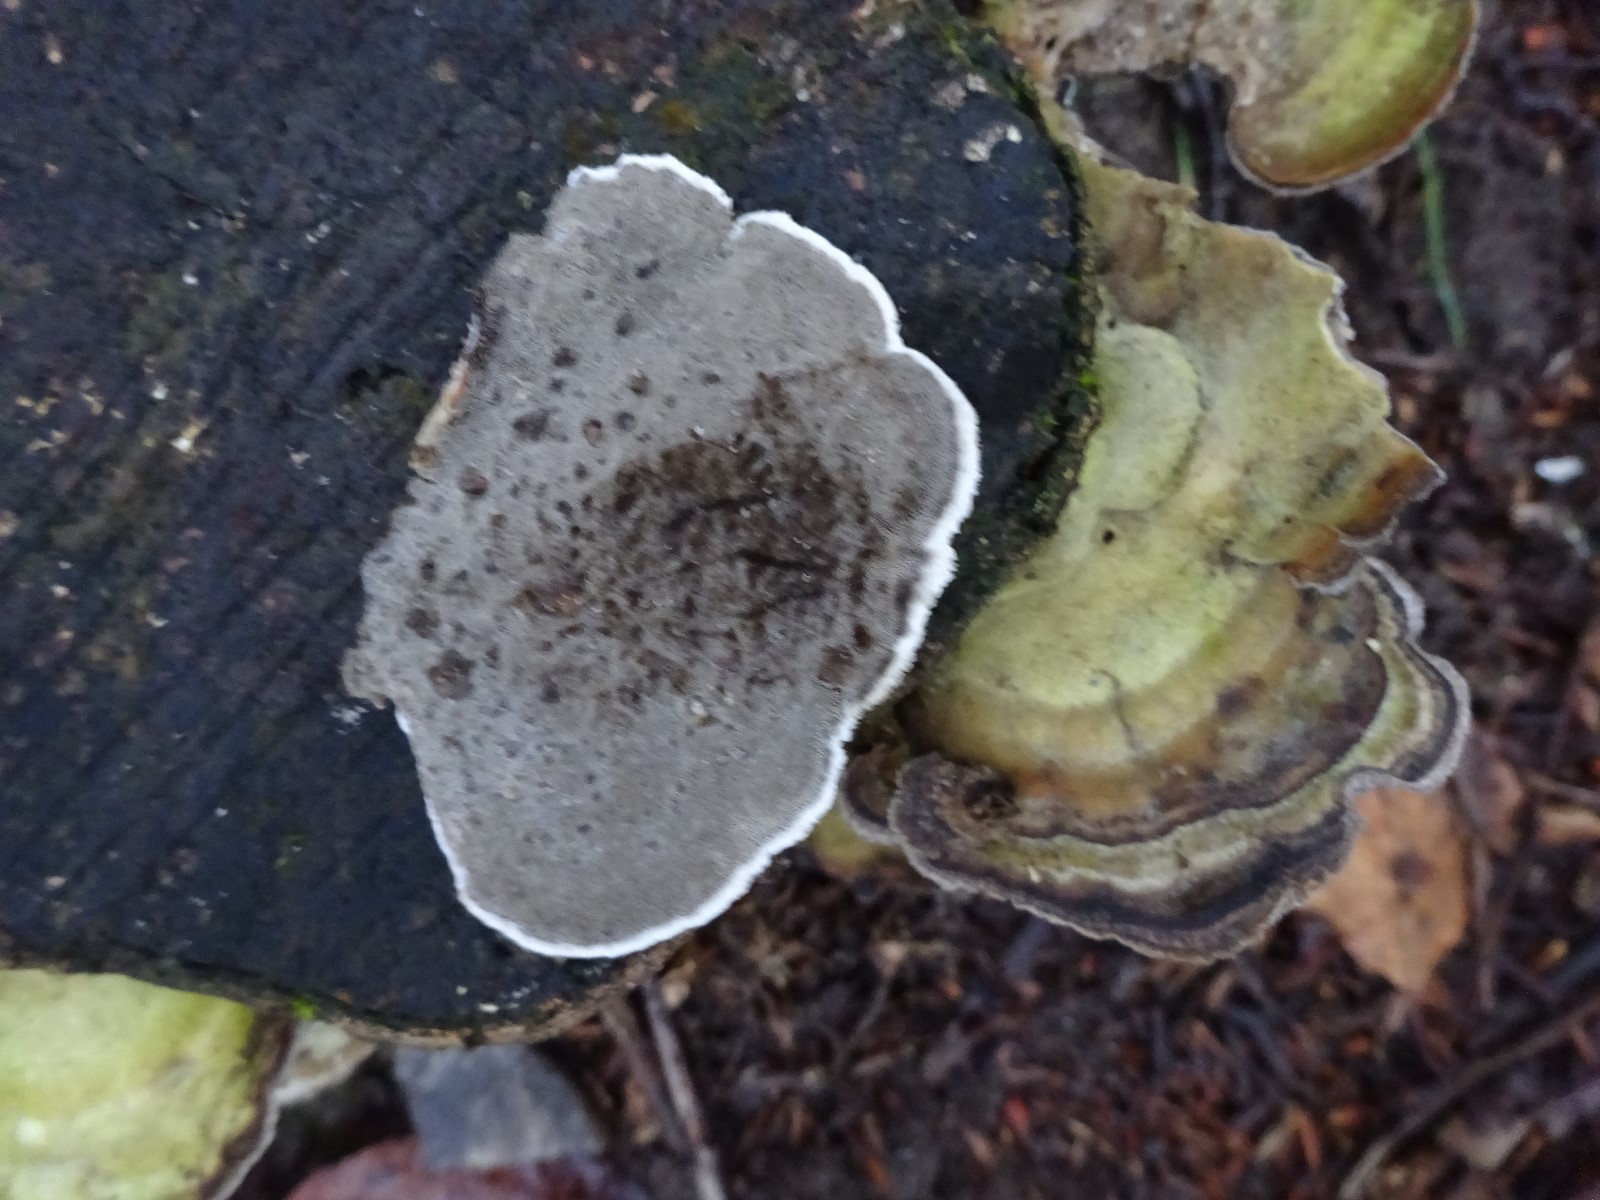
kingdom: Fungi
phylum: Basidiomycota
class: Agaricomycetes
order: Polyporales
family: Phanerochaetaceae
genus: Bjerkandera
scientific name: Bjerkandera adusta
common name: sveden sodporesvamp
